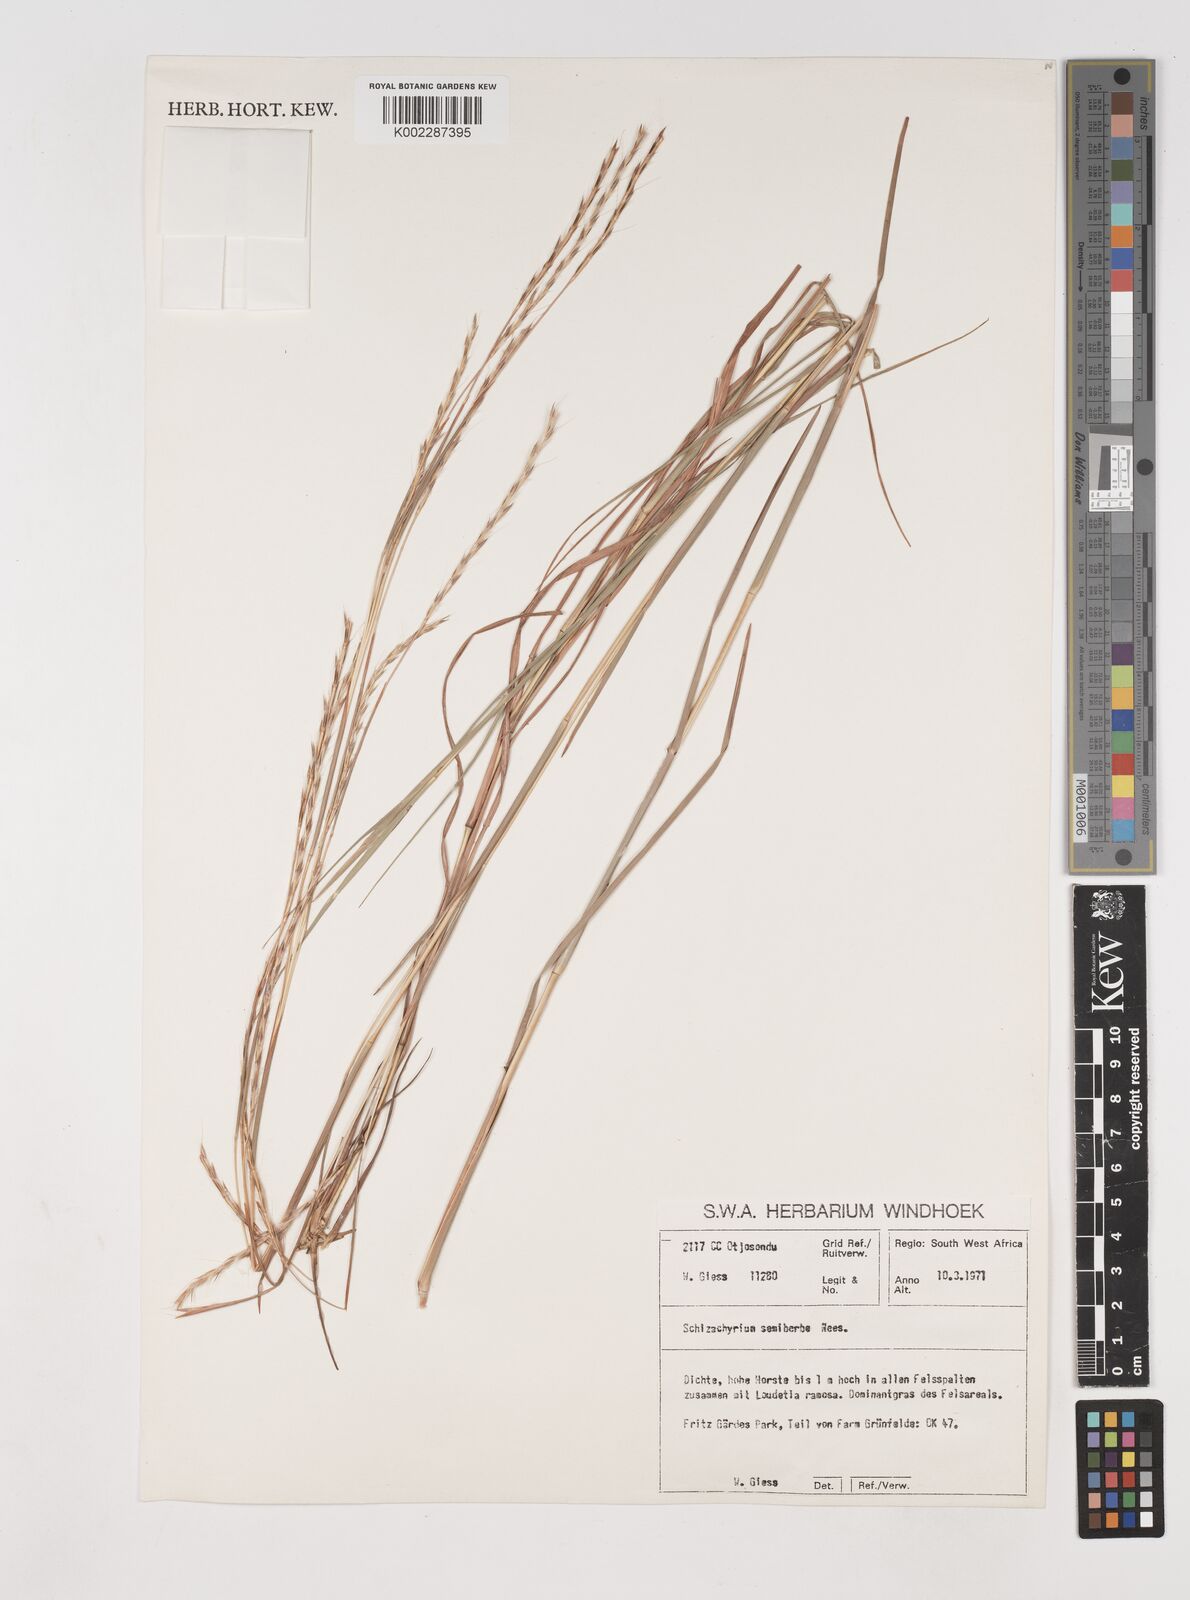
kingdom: Plantae
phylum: Tracheophyta
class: Liliopsida
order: Poales
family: Poaceae
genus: Schizachyrium
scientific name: Schizachyrium sanguineum
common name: Crimson bluestem
